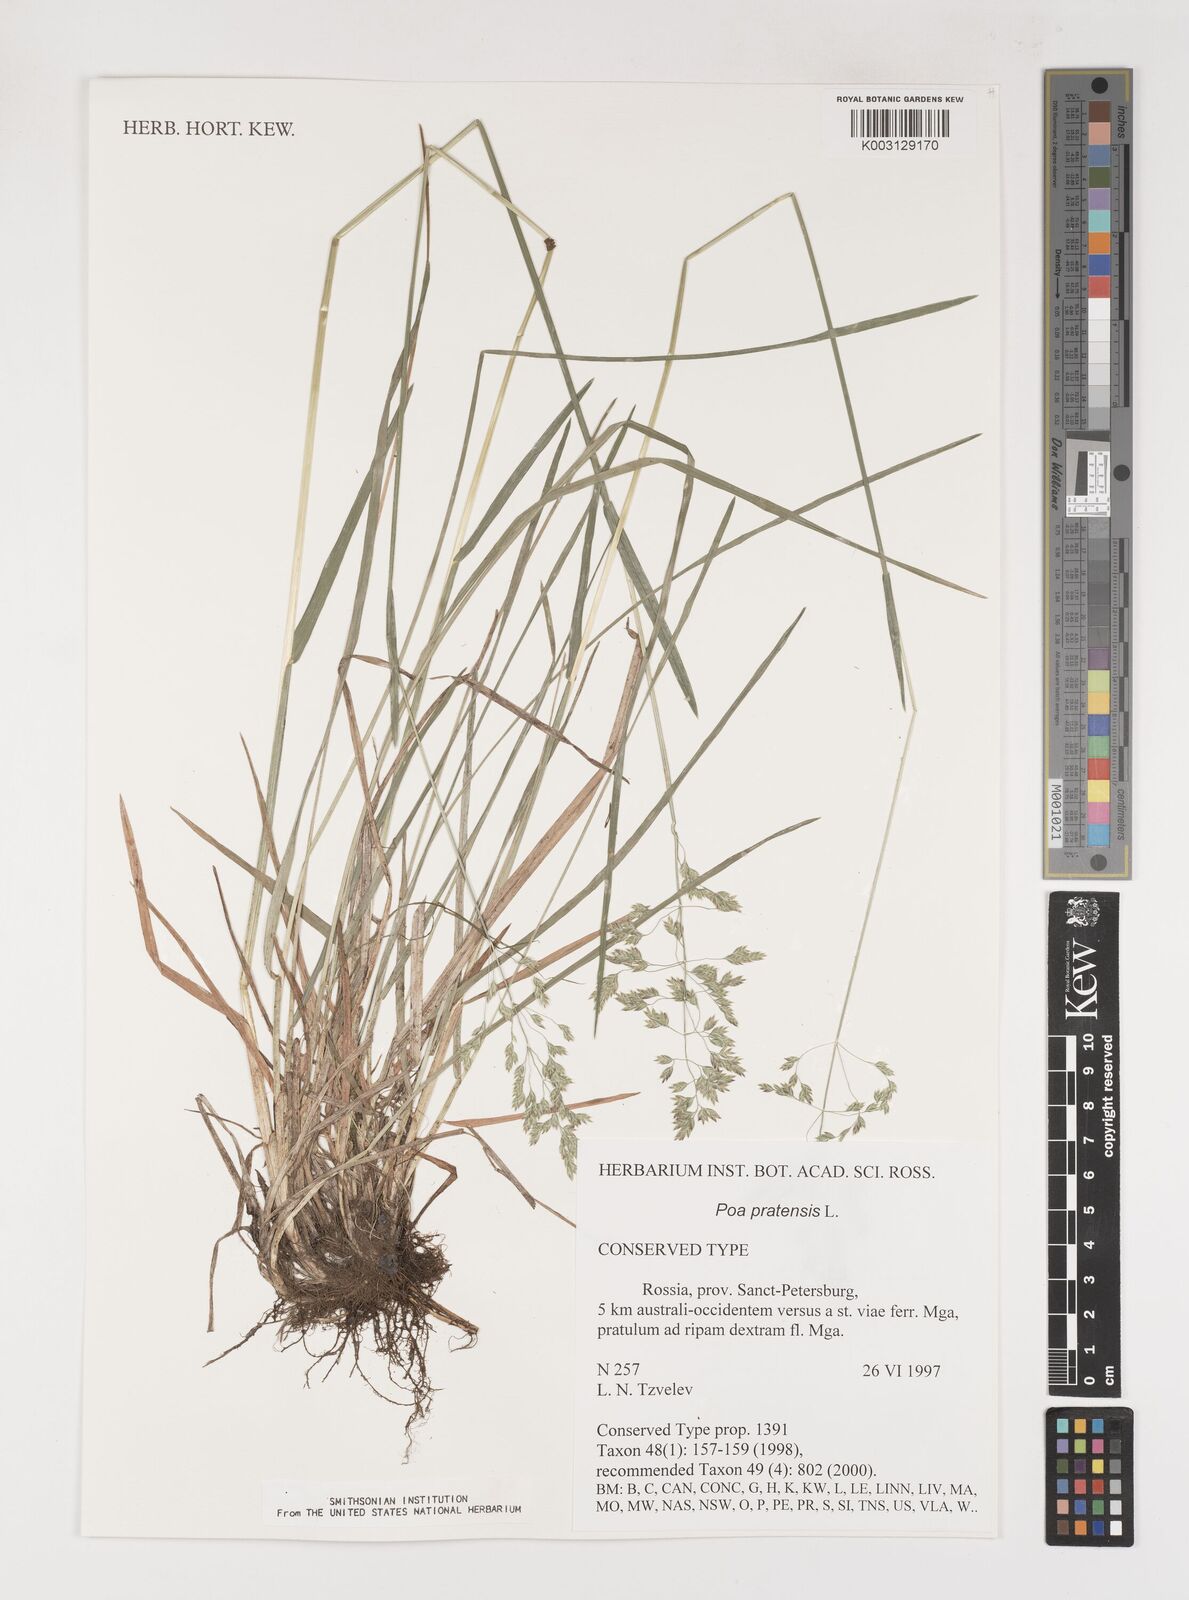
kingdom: Plantae
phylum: Tracheophyta
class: Liliopsida
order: Poales
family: Poaceae
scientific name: Poaceae
